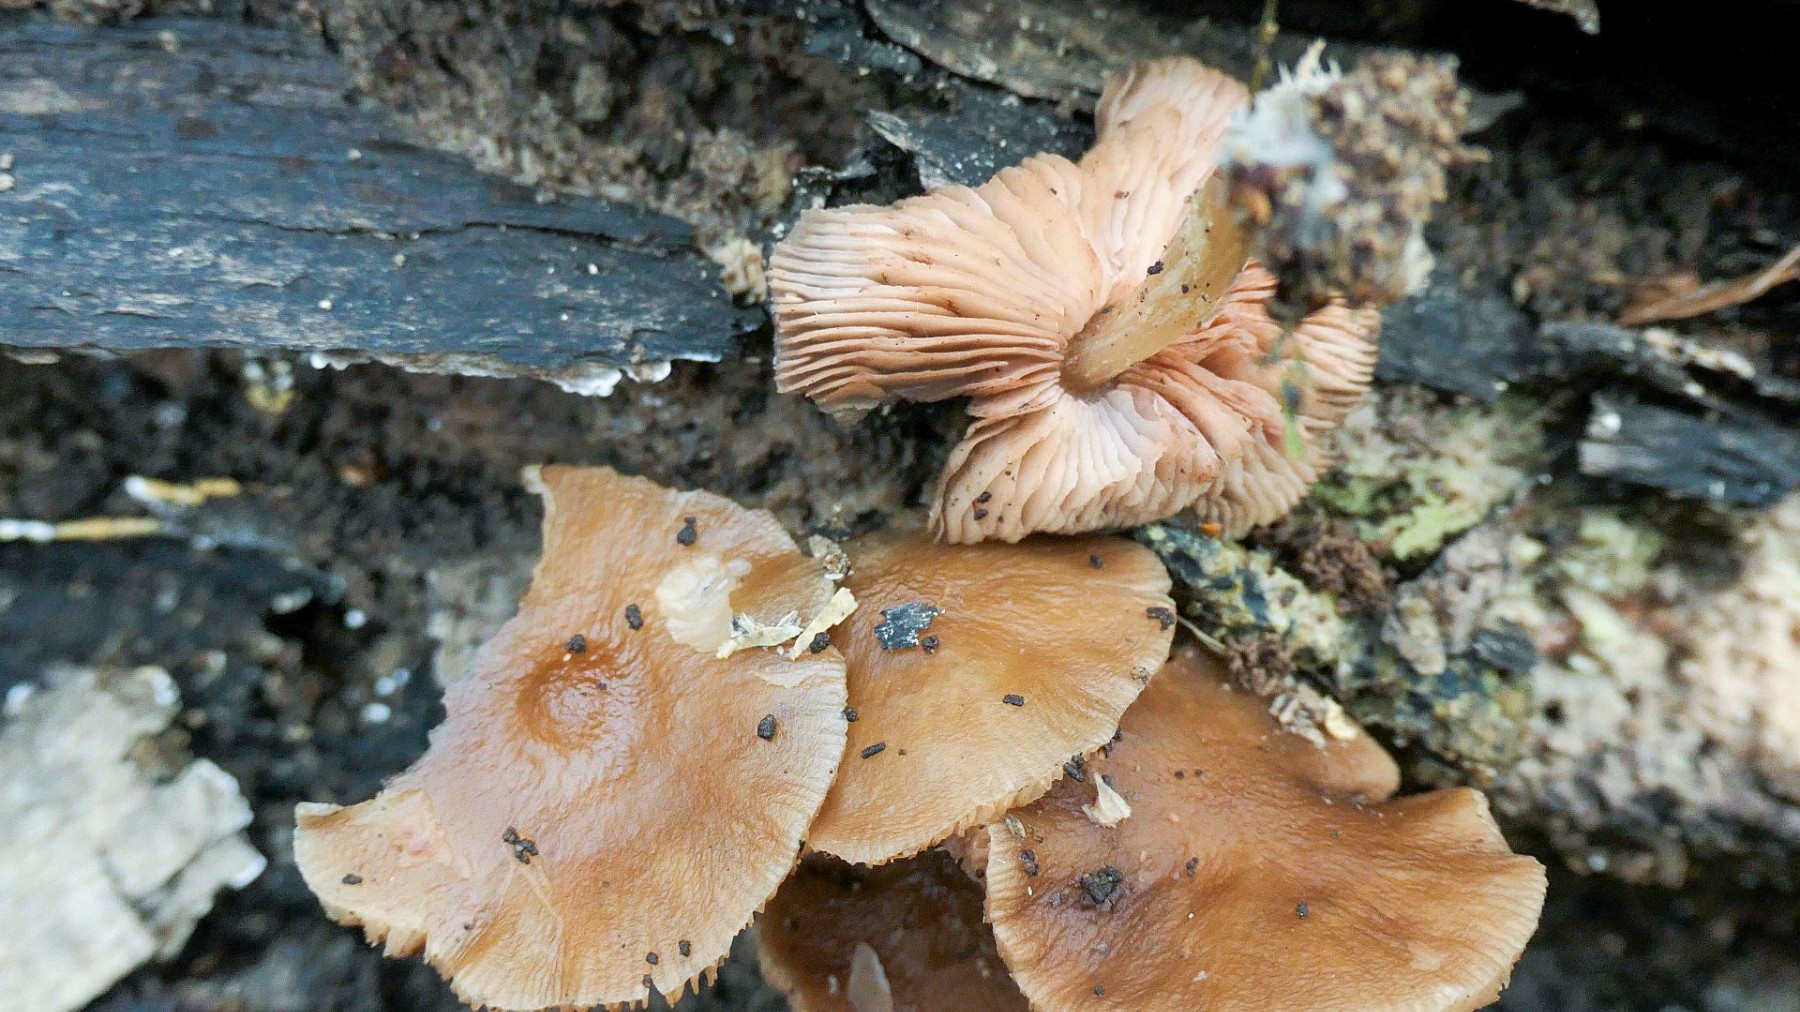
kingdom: Fungi
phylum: Basidiomycota
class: Agaricomycetes
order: Agaricales
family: Pluteaceae
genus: Pluteus
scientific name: Pluteus phlebophorus
